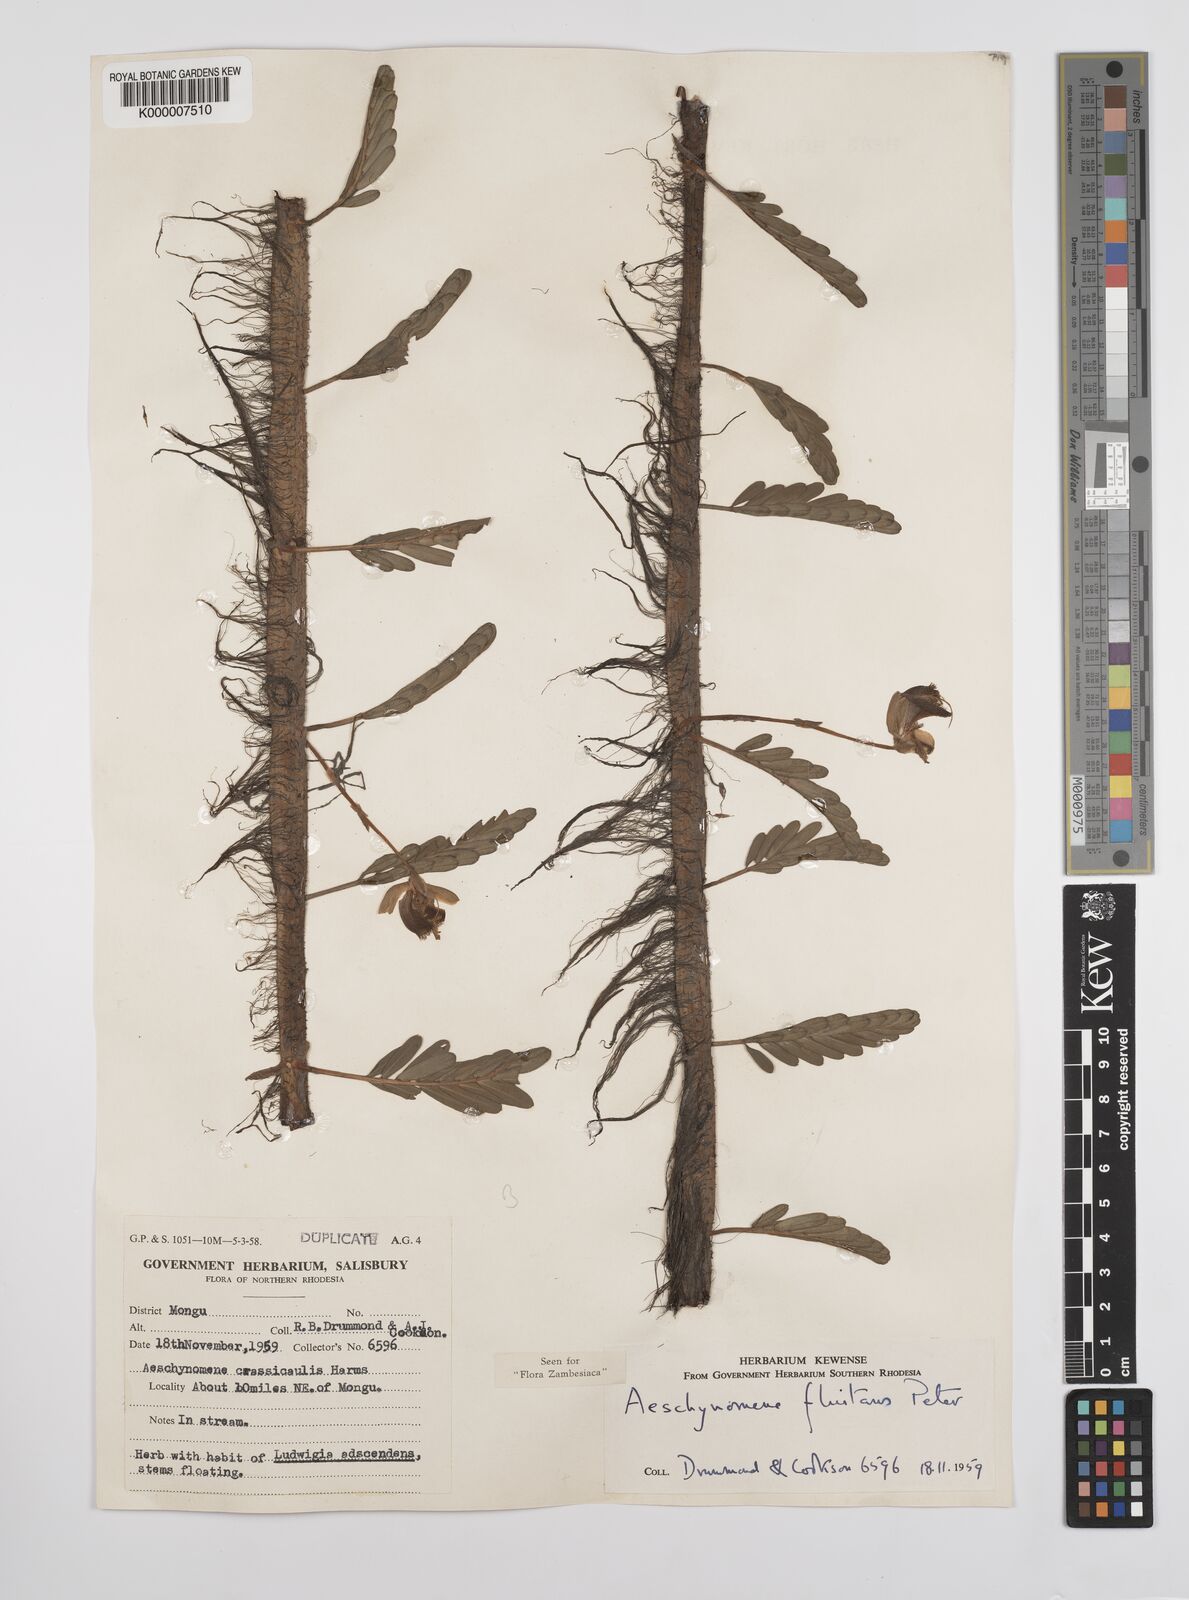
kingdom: Plantae
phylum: Tracheophyta
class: Magnoliopsida
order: Fabales
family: Fabaceae
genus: Aeschynomene
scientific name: Aeschynomene fluitans
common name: Giant water sensitive plant
